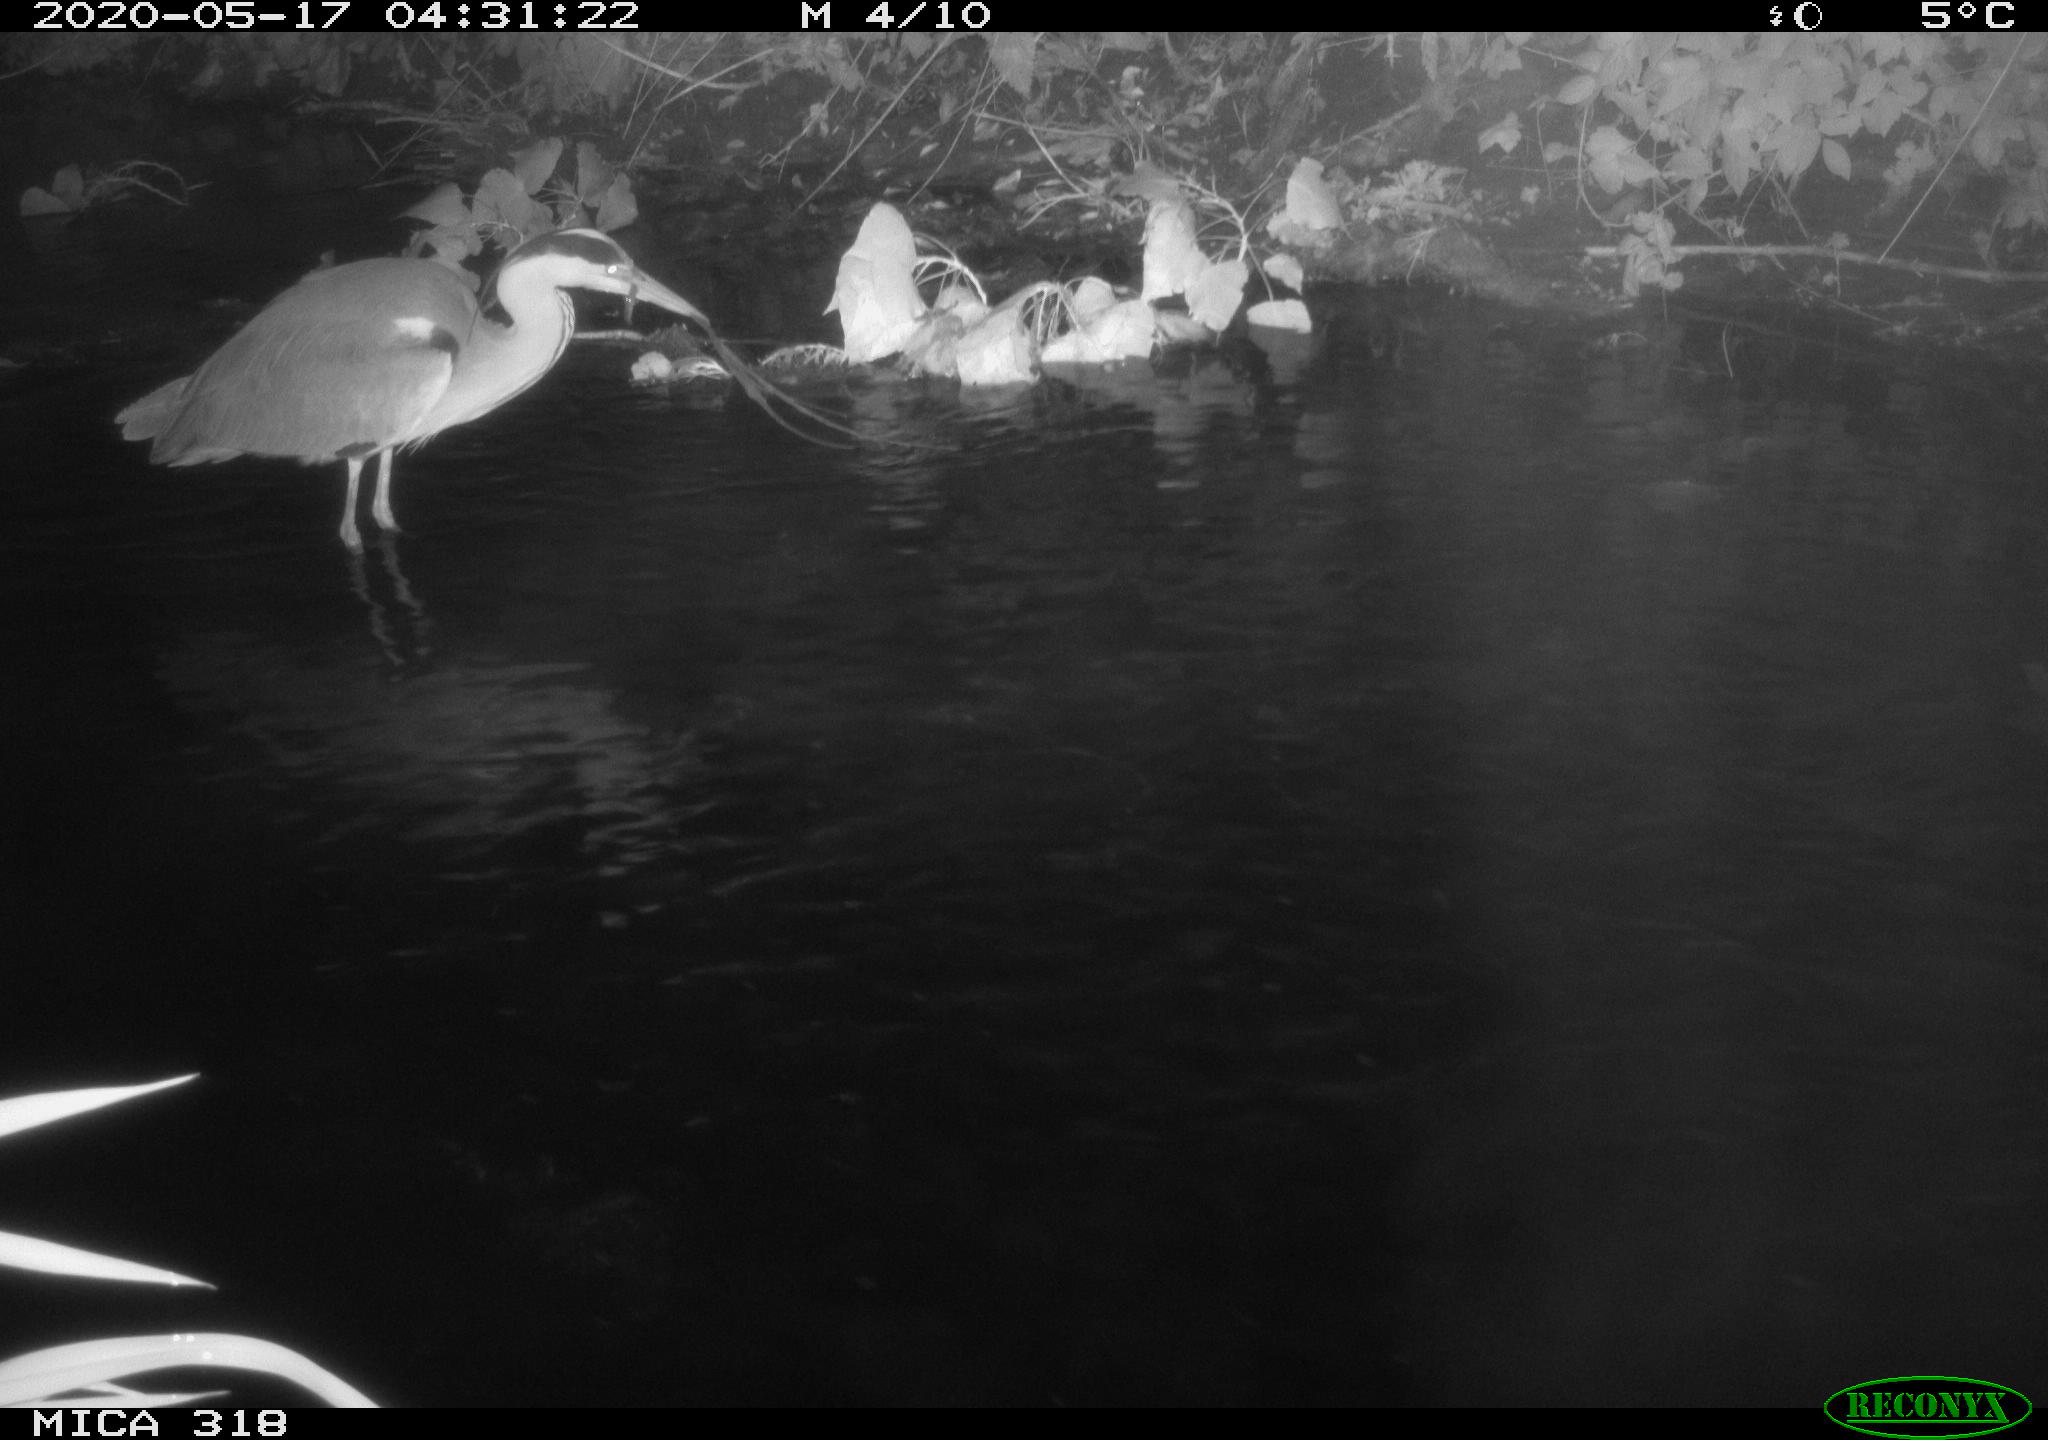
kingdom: Animalia
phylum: Chordata
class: Aves
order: Pelecaniformes
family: Ardeidae
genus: Ardea
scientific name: Ardea cinerea
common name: Grey heron
